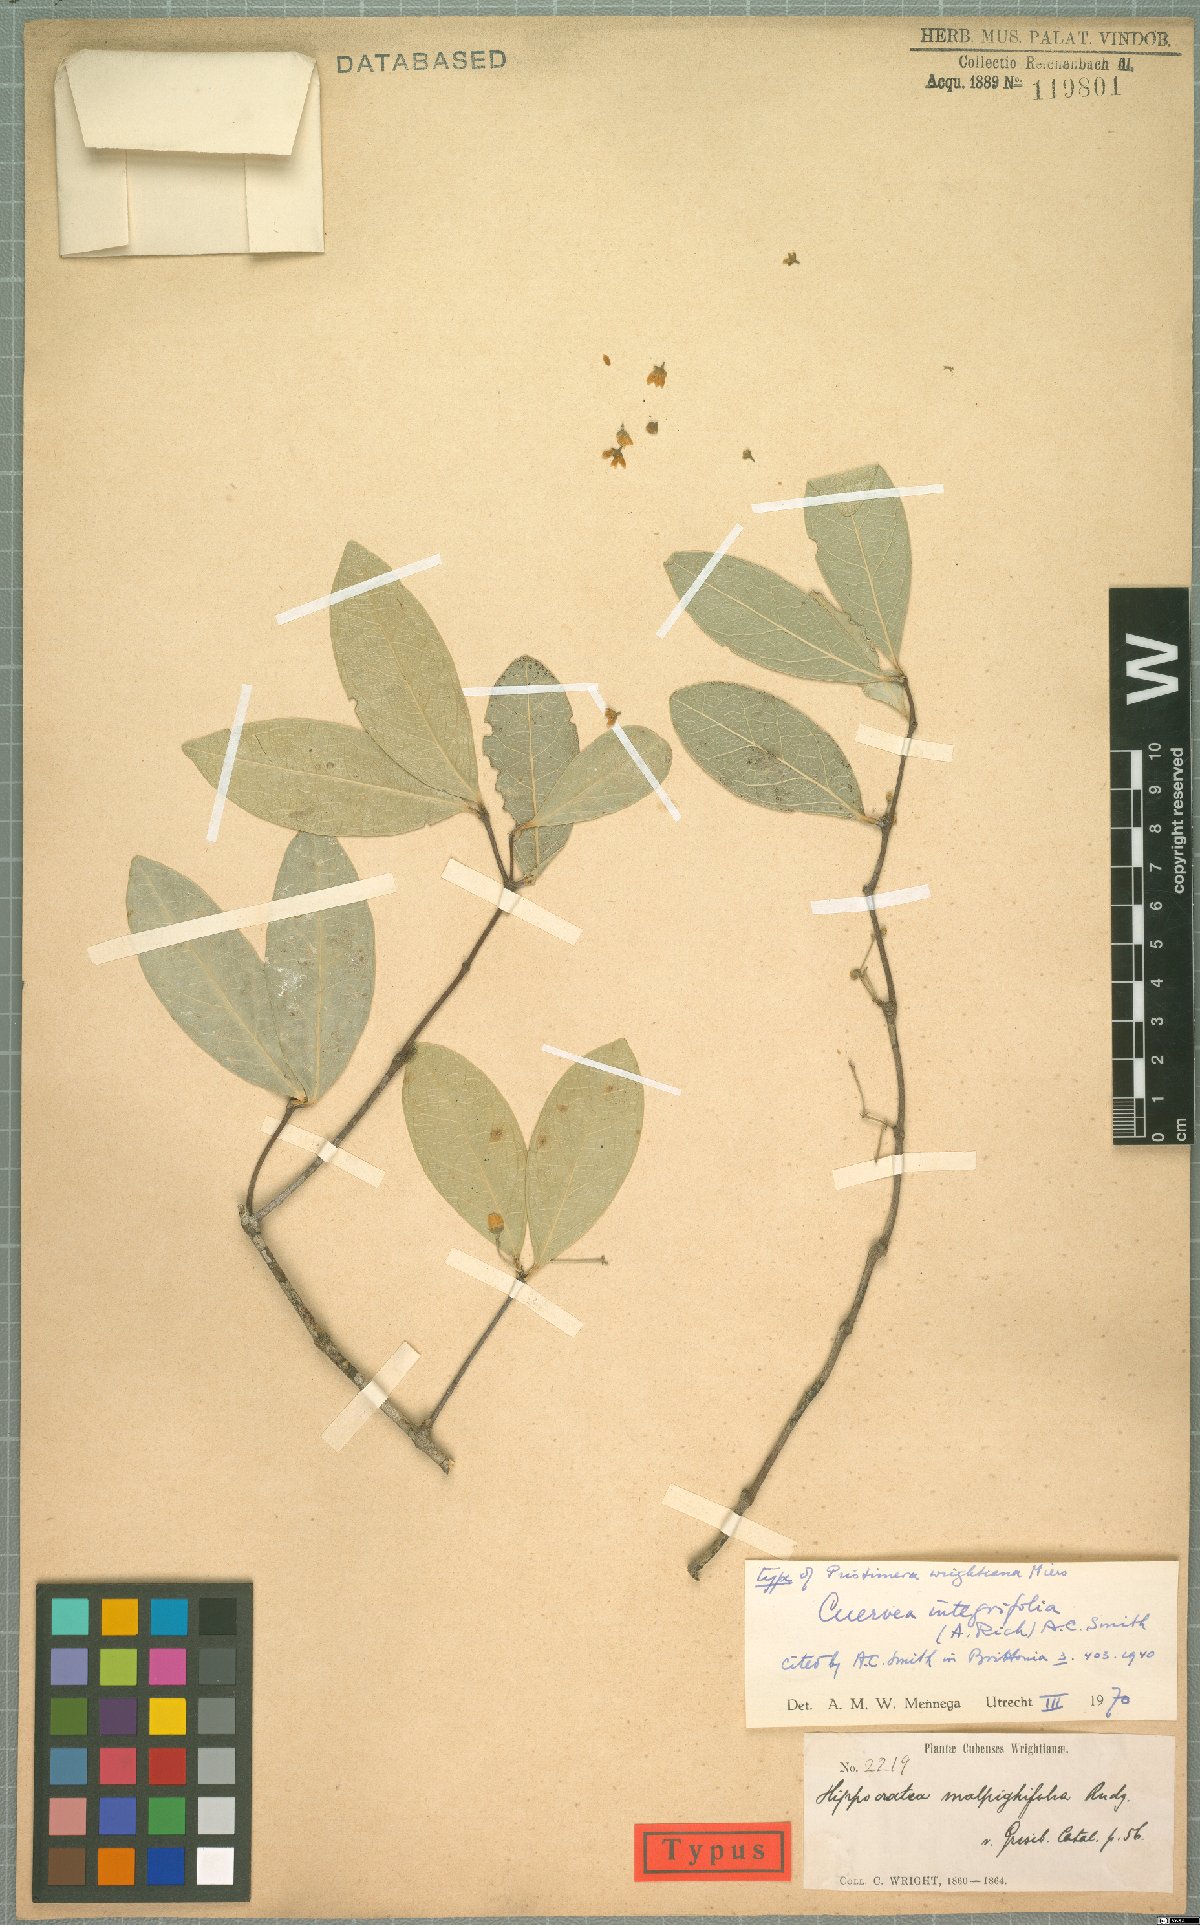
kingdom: Plantae
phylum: Tracheophyta
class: Magnoliopsida
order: Celastrales
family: Celastraceae
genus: Cuervea
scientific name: Cuervea integrifolia
